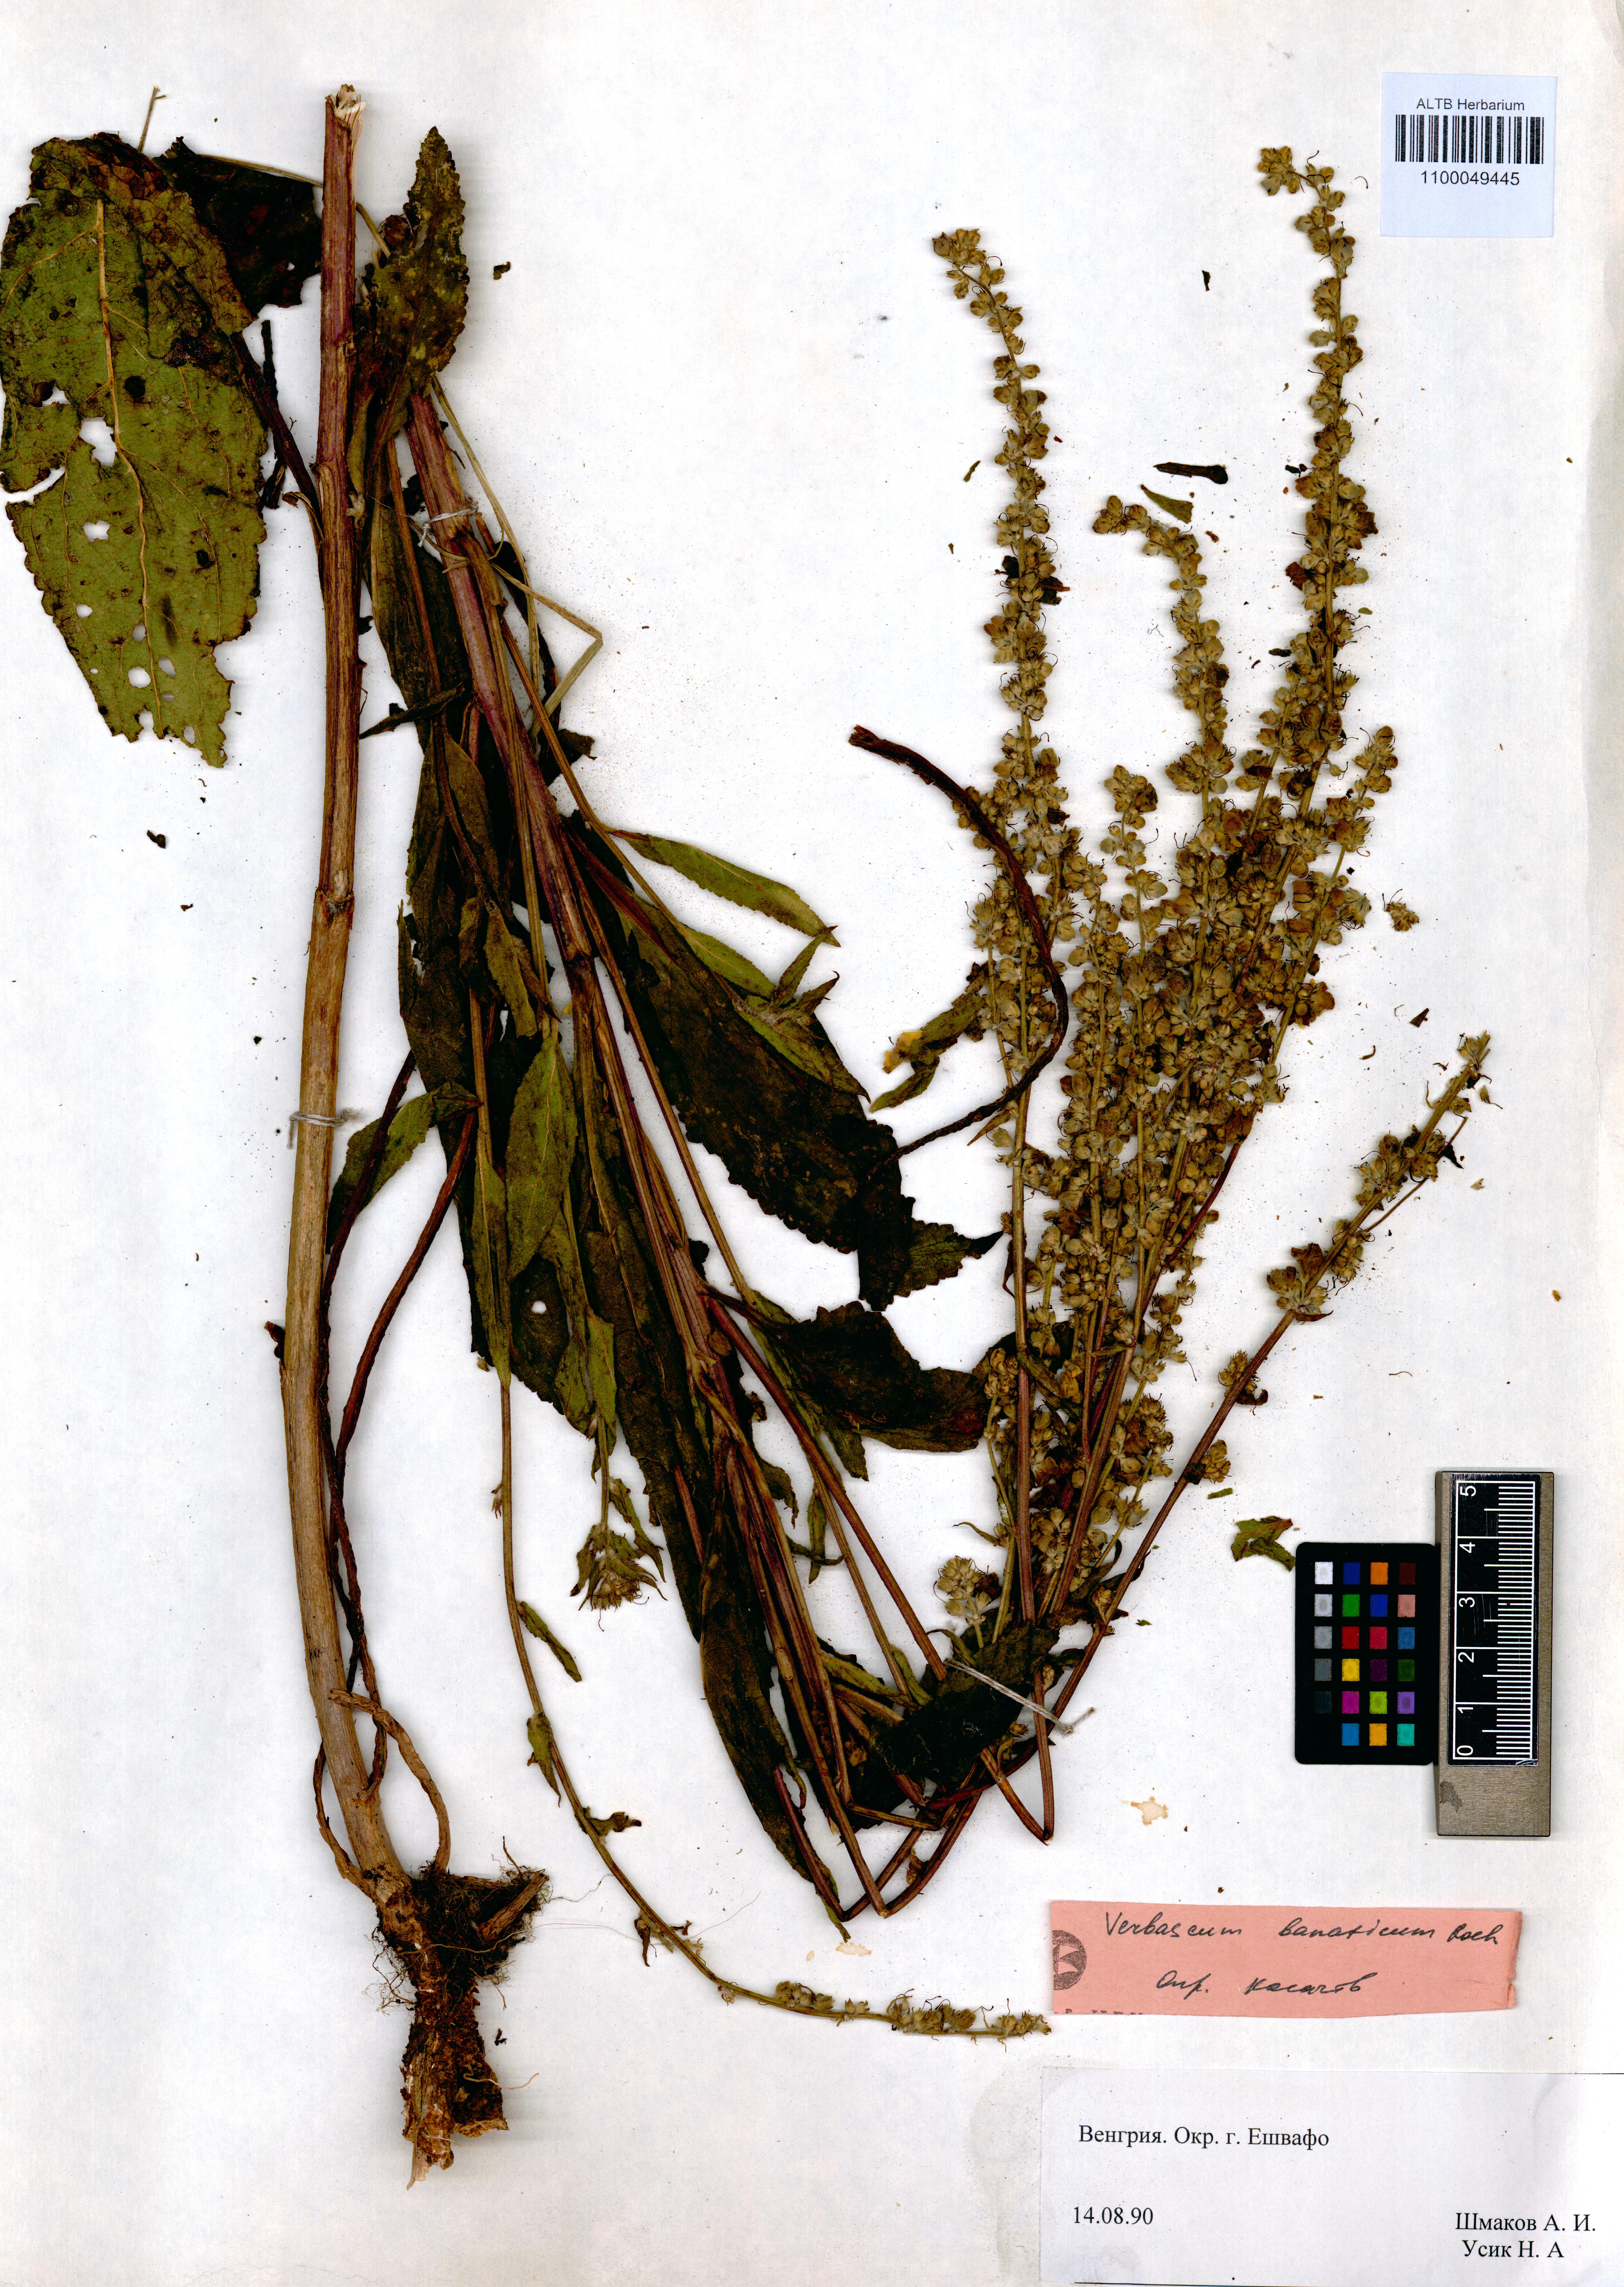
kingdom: Plantae
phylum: Tracheophyta
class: Magnoliopsida
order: Lamiales
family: Scrophulariaceae
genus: Verbascum
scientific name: Verbascum banaticum
